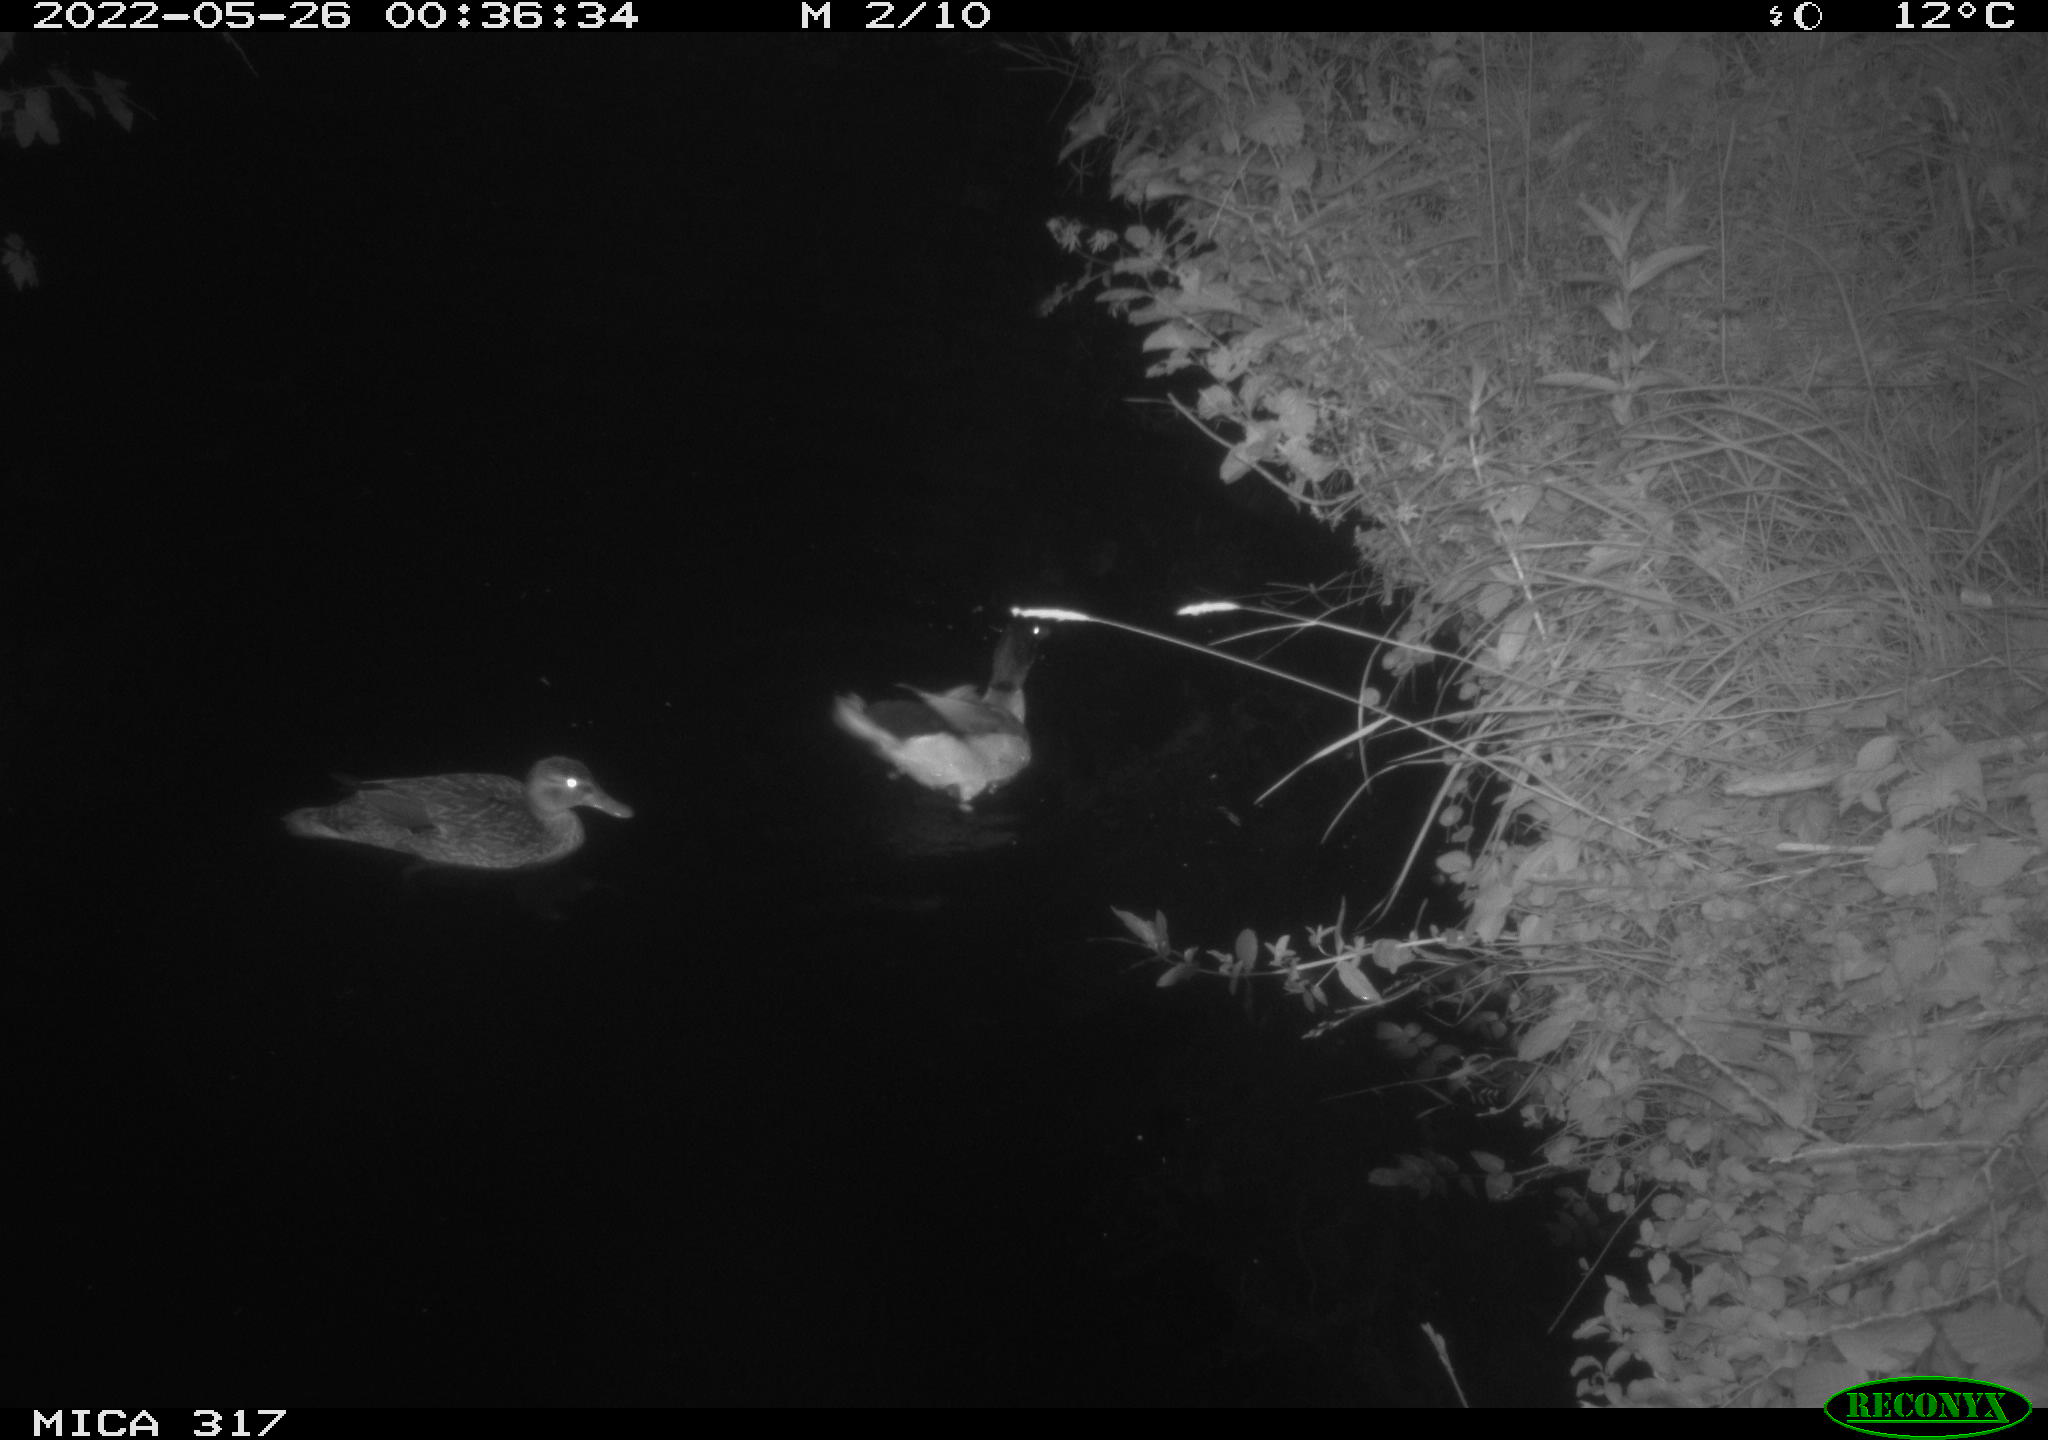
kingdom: Animalia
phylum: Chordata
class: Aves
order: Anseriformes
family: Anatidae
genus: Anas
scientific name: Anas
